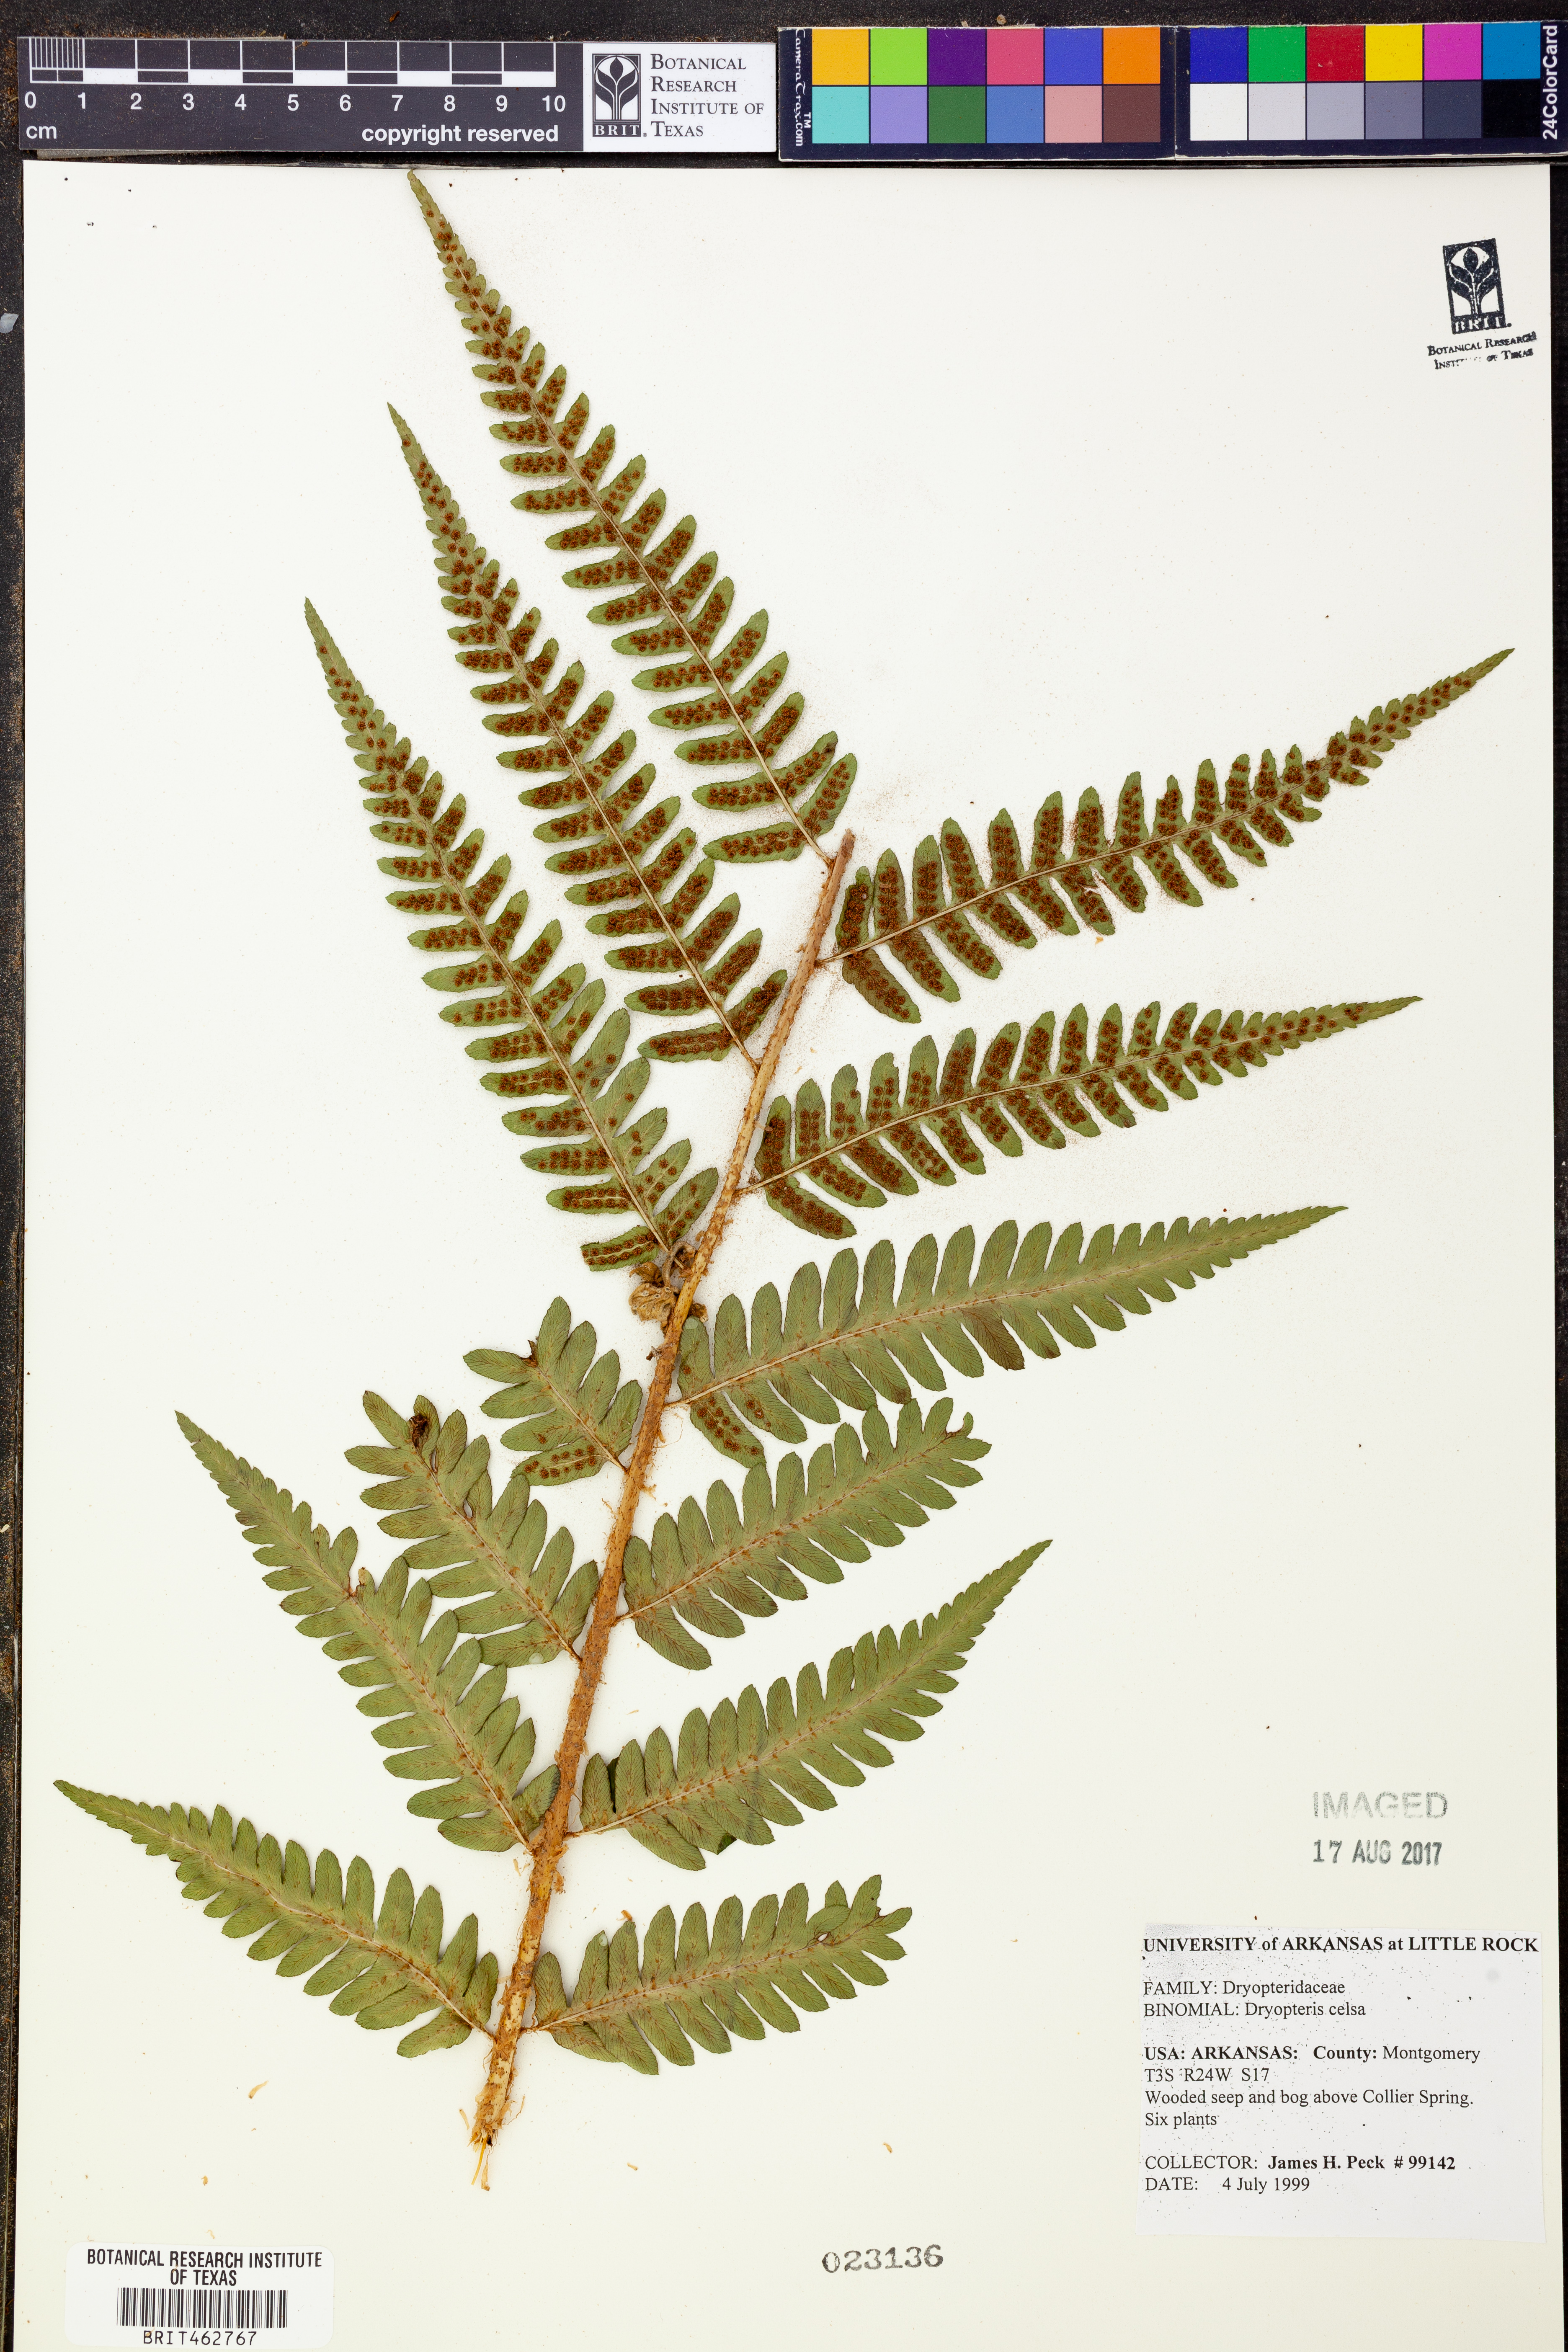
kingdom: Plantae
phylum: Tracheophyta
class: Polypodiopsida
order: Polypodiales
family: Dryopteridaceae
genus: Dryopteris
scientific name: Dryopteris celsa
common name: Log fern
